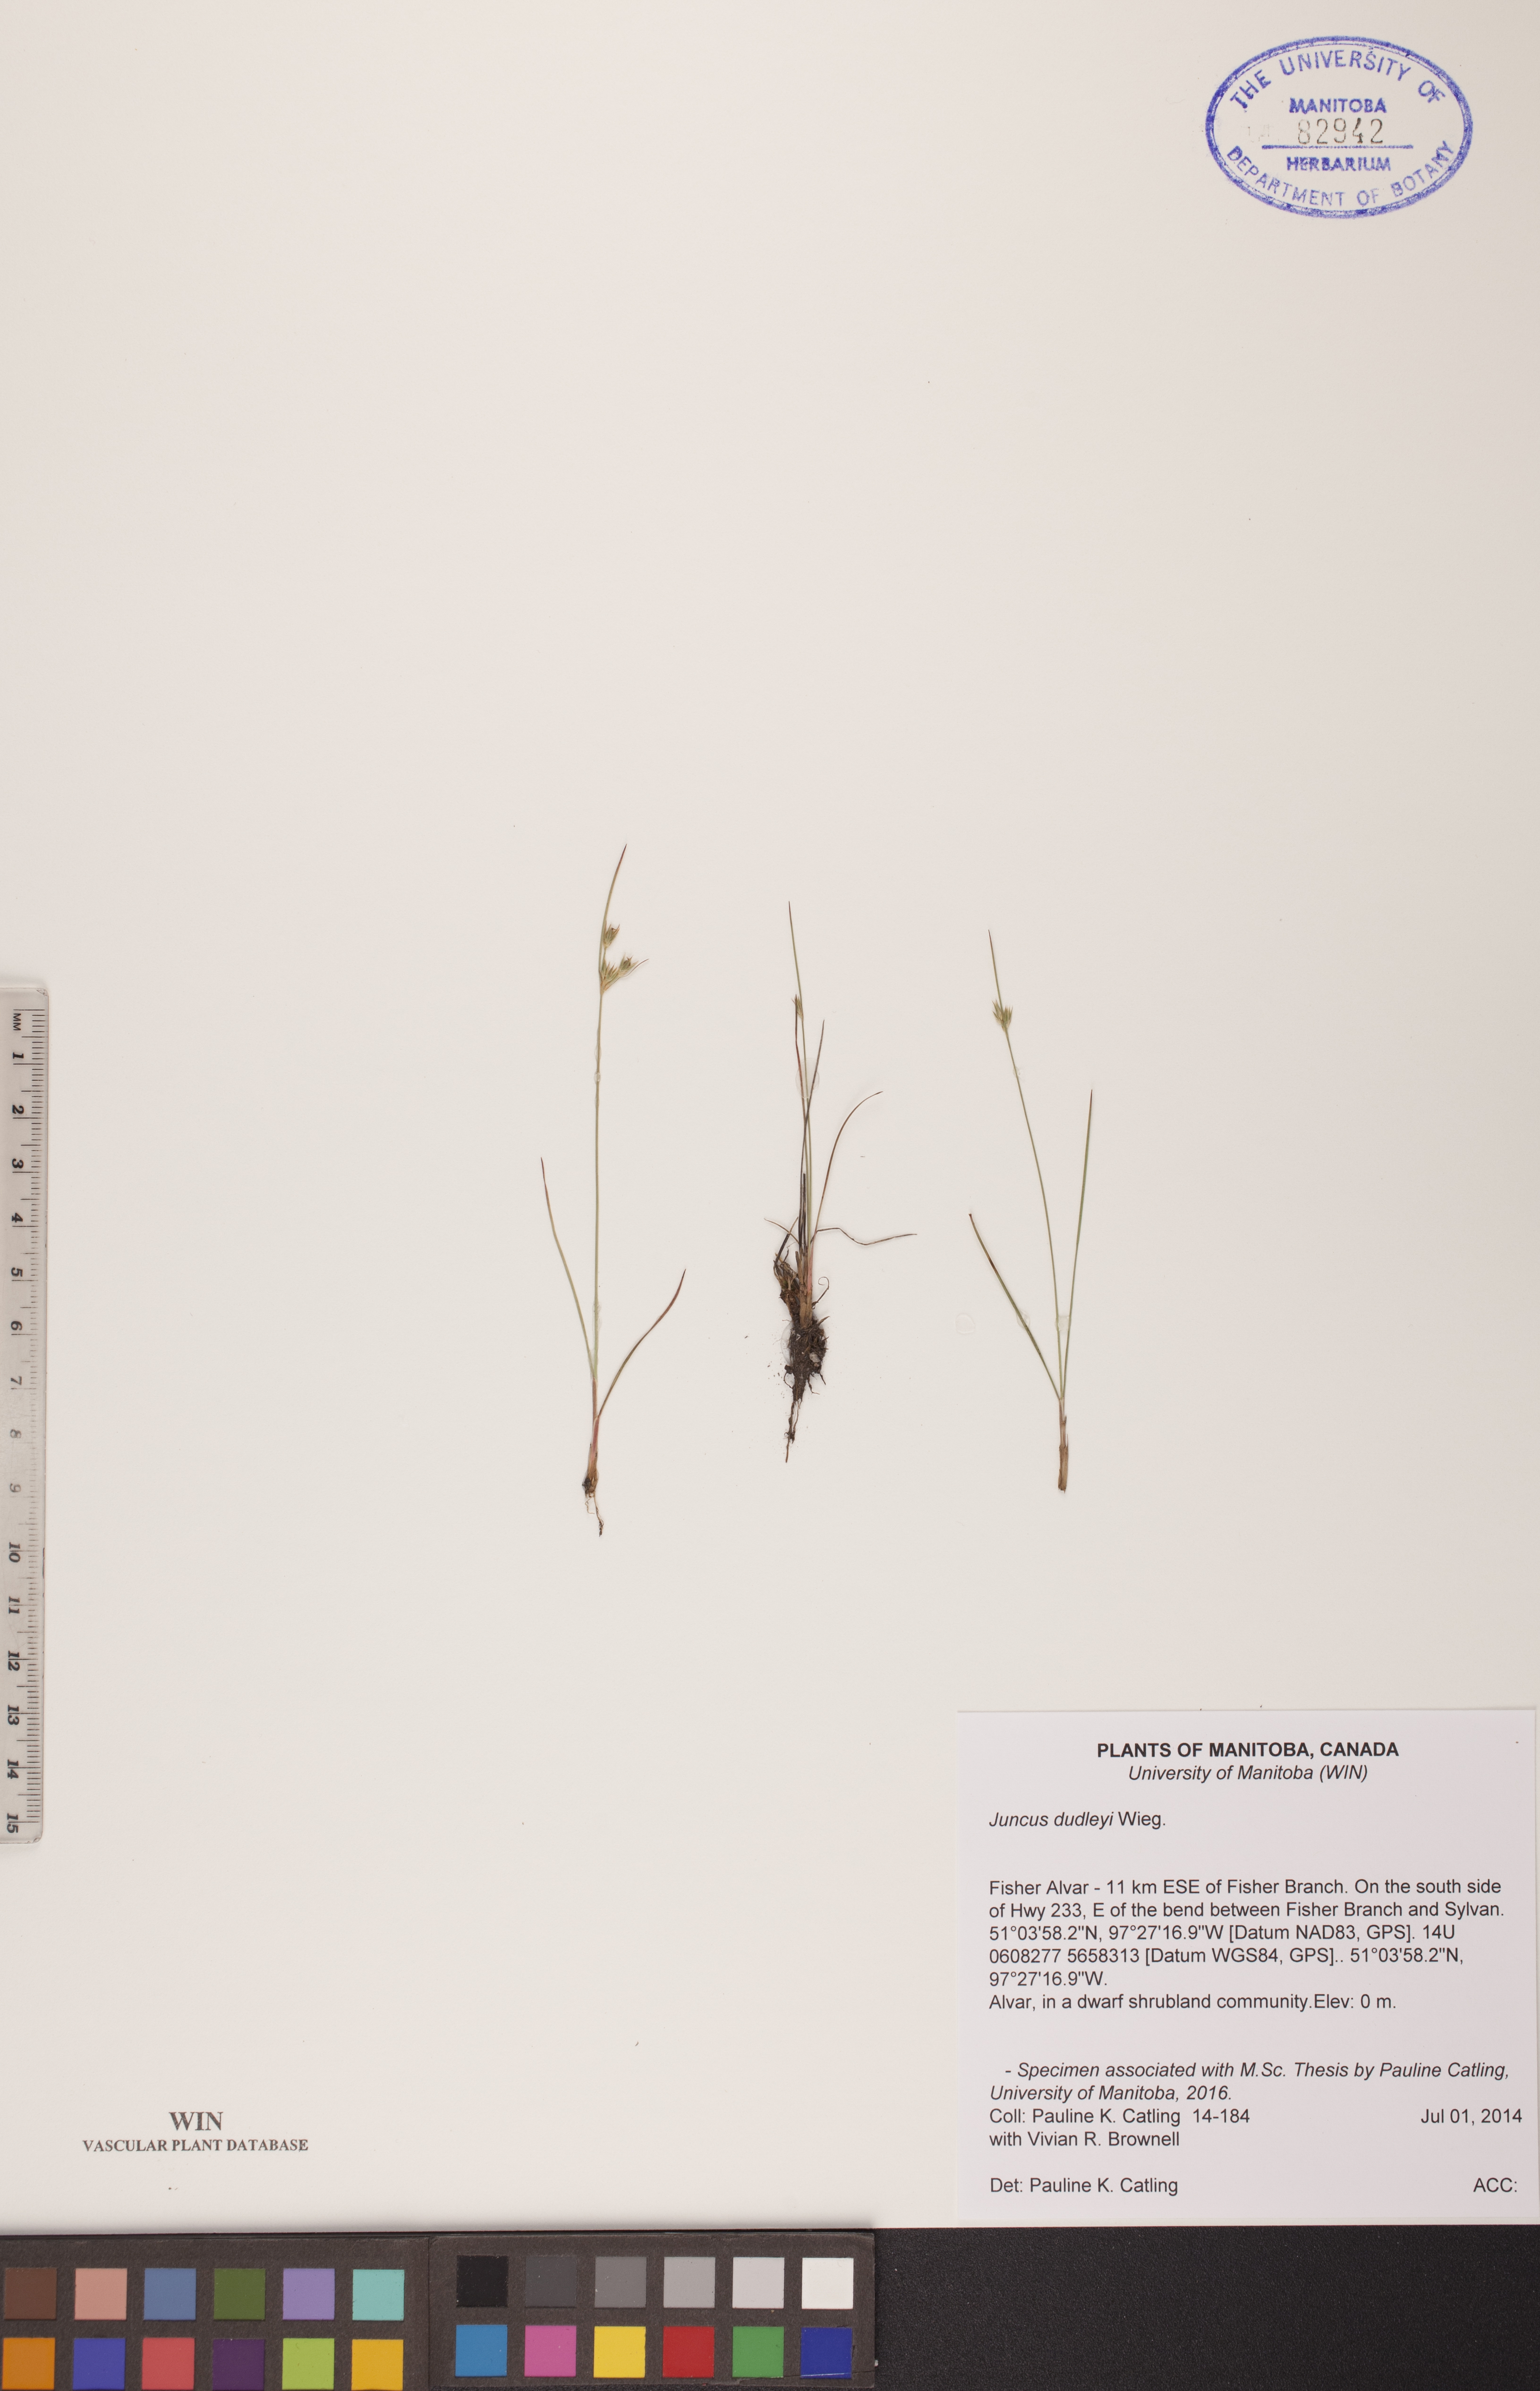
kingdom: Plantae
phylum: Tracheophyta
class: Liliopsida
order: Poales
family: Juncaceae
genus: Juncus
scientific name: Juncus dudleyi
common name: Dudley's rush
